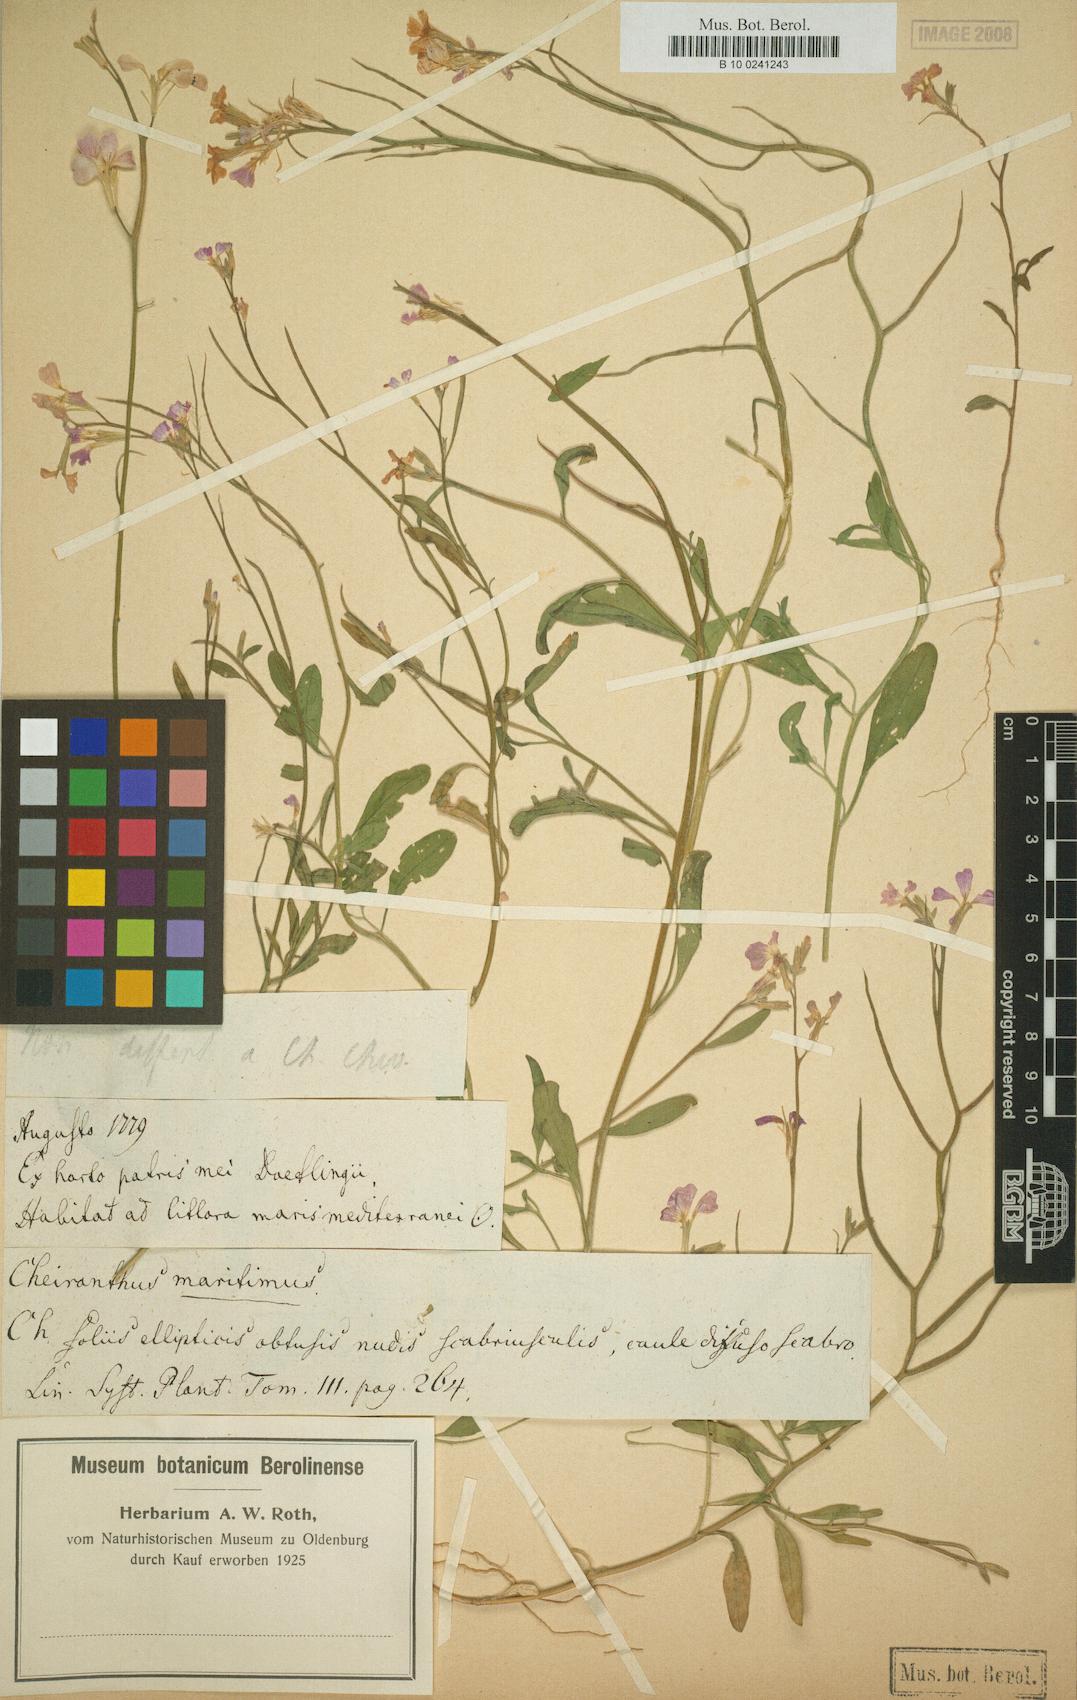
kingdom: Plantae
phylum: Tracheophyta
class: Magnoliopsida
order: Brassicales
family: Brassicaceae
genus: Malcolmia
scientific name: Malcolmia maritima
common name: Virginia stock
